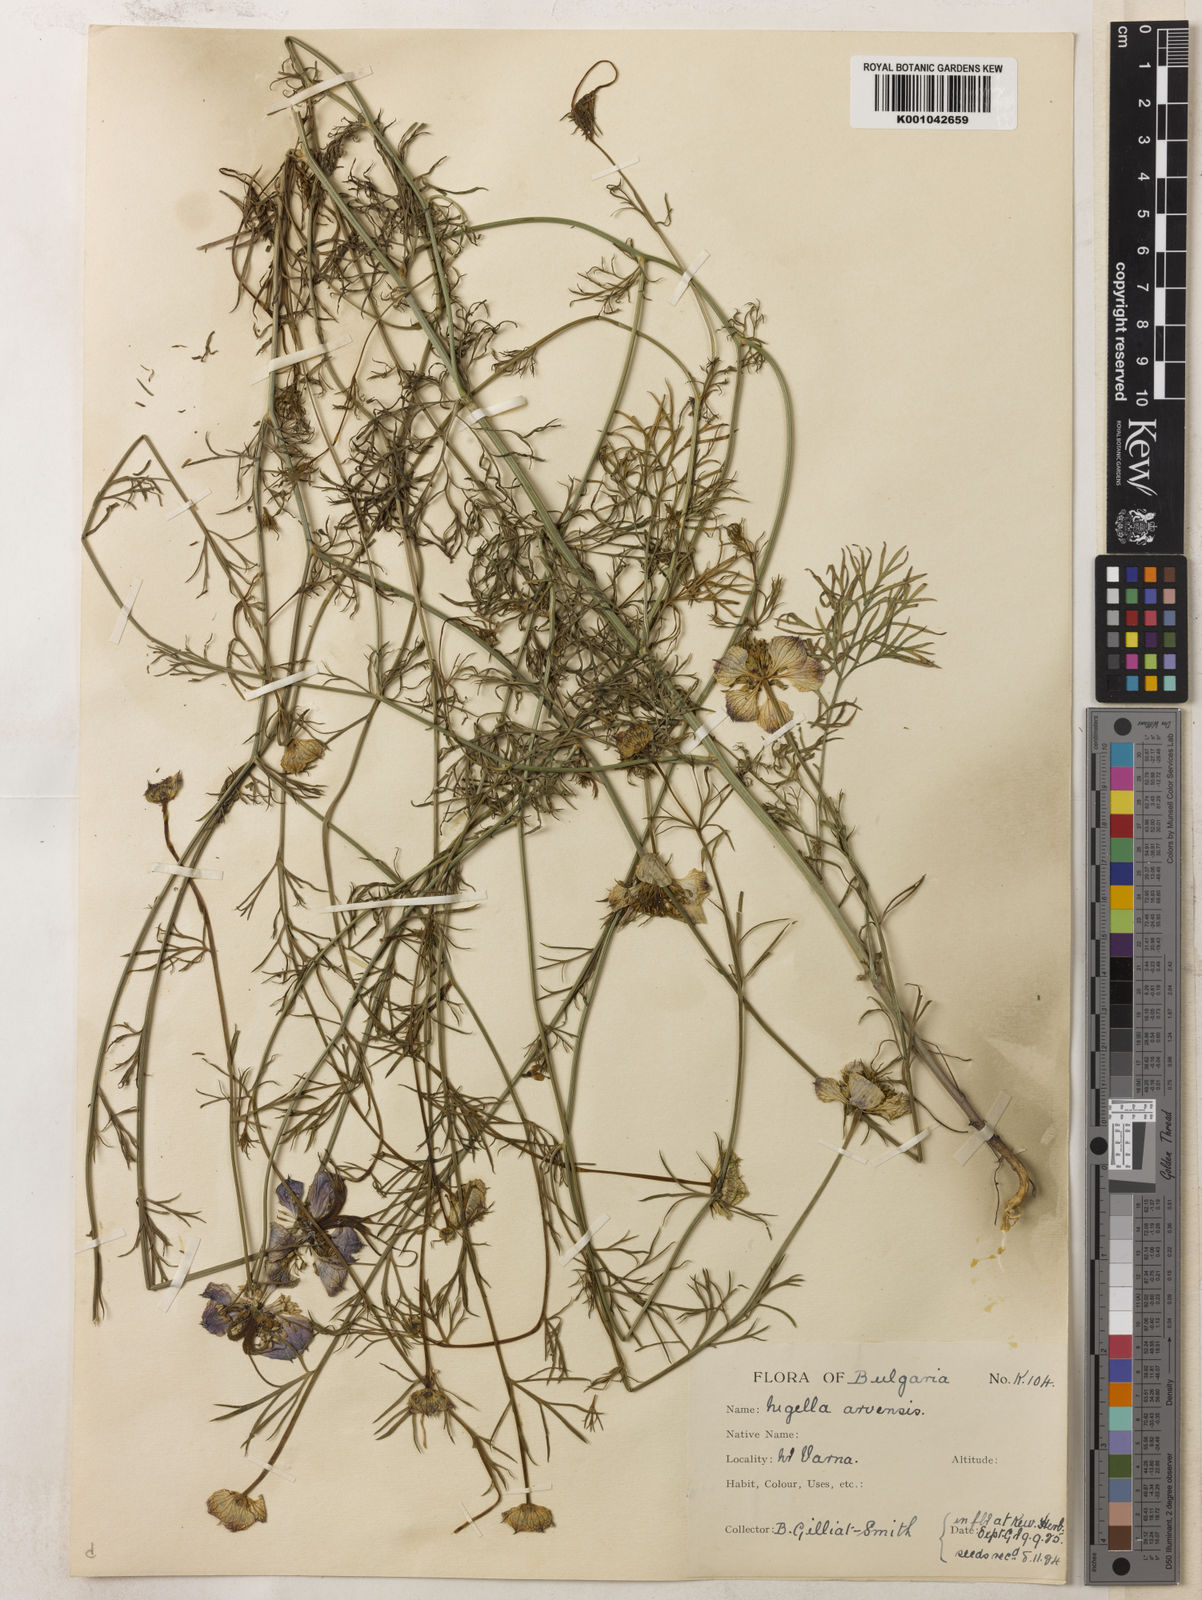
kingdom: Plantae
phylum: Tracheophyta
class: Magnoliopsida
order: Ranunculales
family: Ranunculaceae
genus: Nigella
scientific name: Nigella arvensis
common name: Wild fennel-flower
